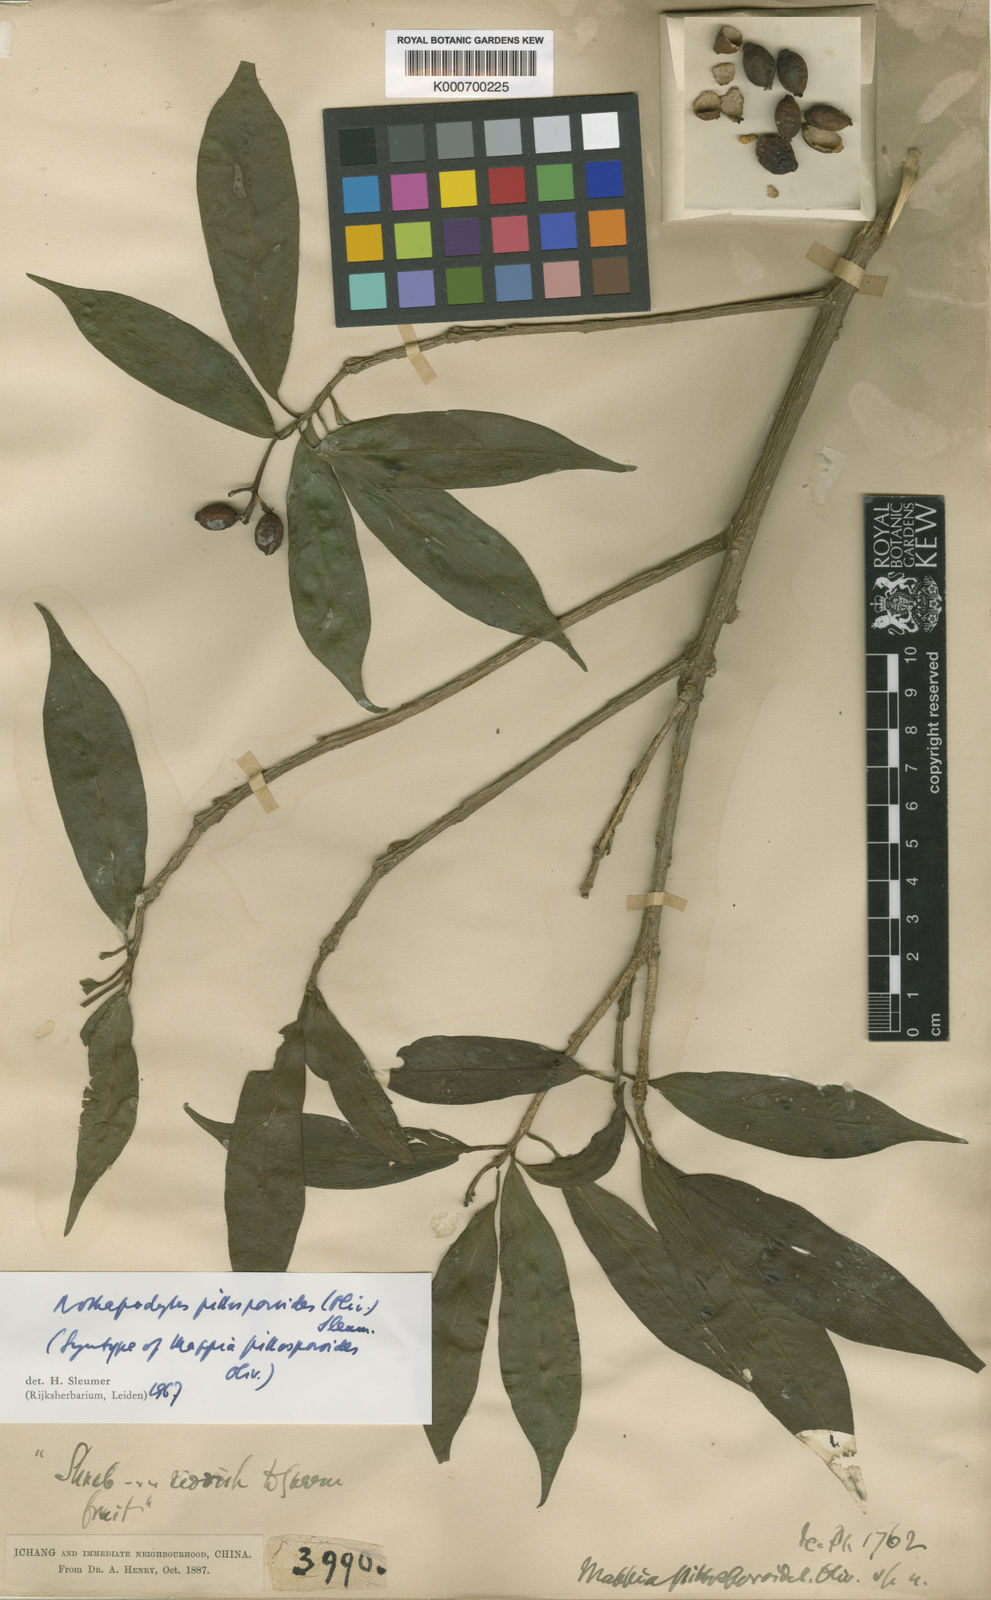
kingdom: Plantae
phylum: Tracheophyta
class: Magnoliopsida
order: Icacinales
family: Icacinaceae
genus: Nothapodytes
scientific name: Nothapodytes pittosporoides
